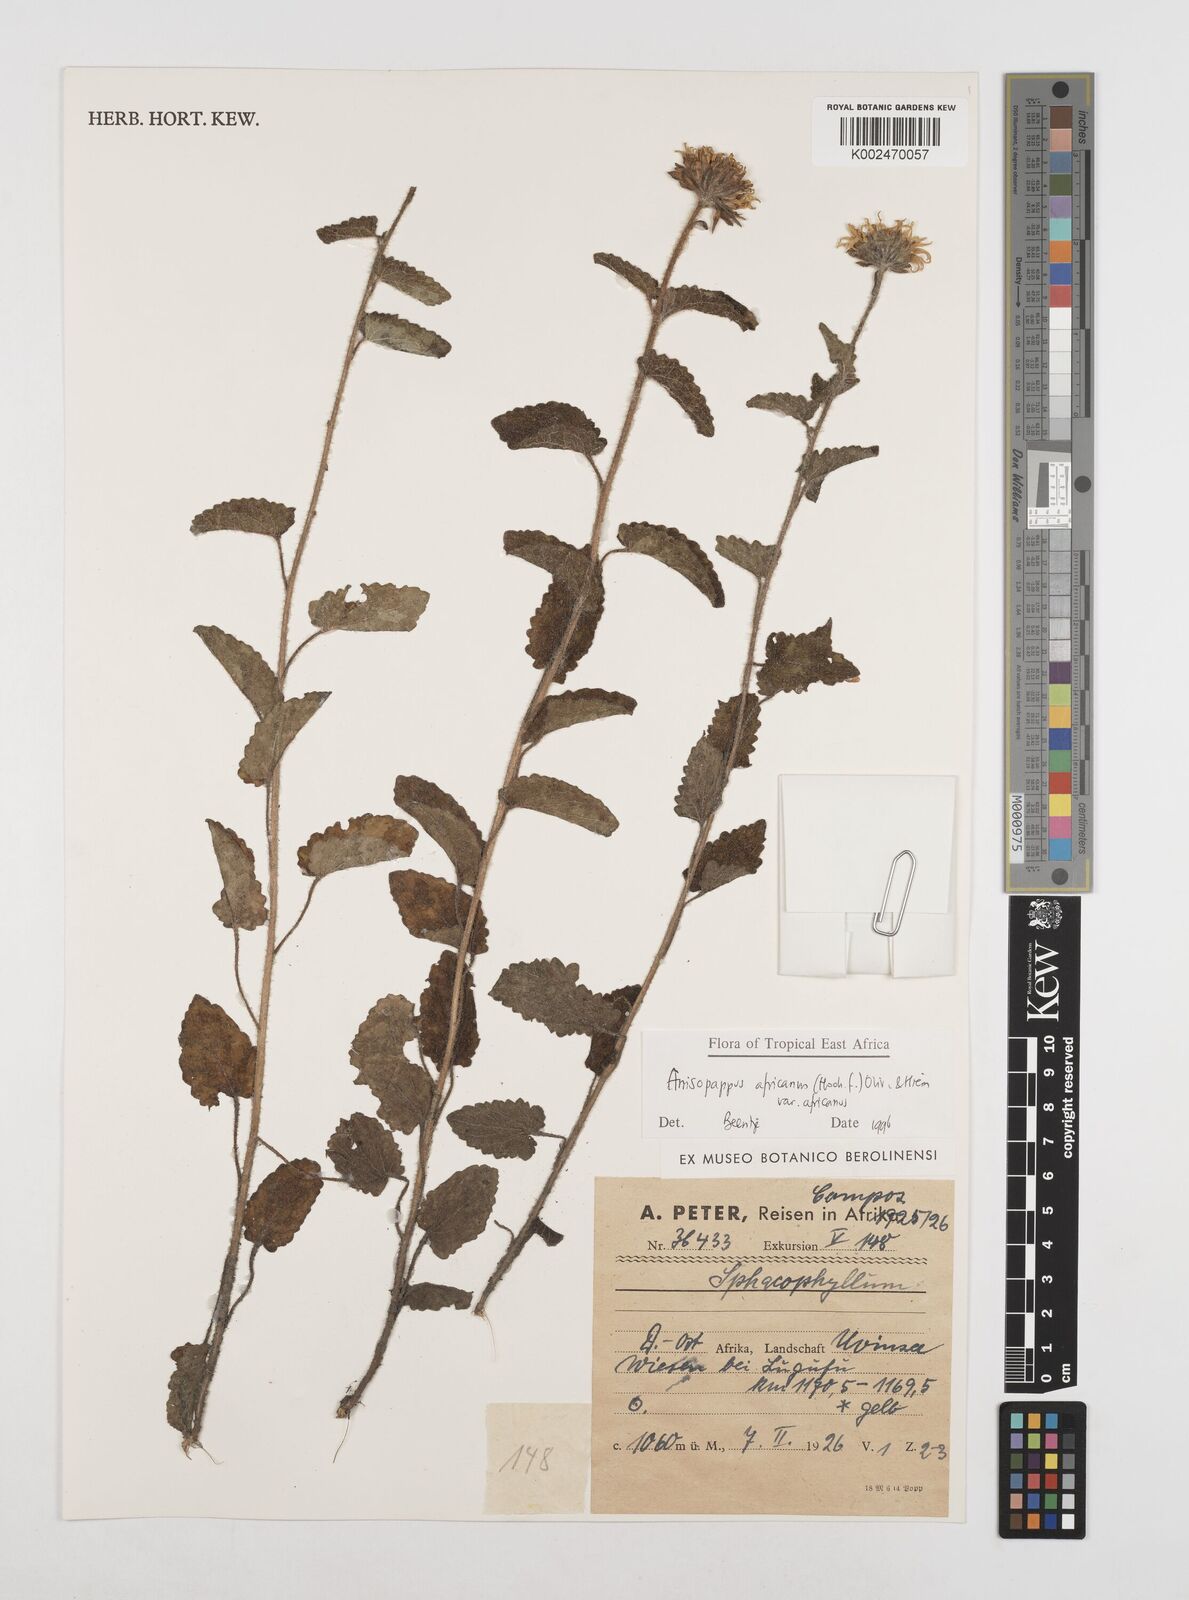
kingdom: Plantae
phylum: Tracheophyta
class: Magnoliopsida
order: Asterales
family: Asteraceae
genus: Anisopappus
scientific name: Anisopappus buchwaldii
